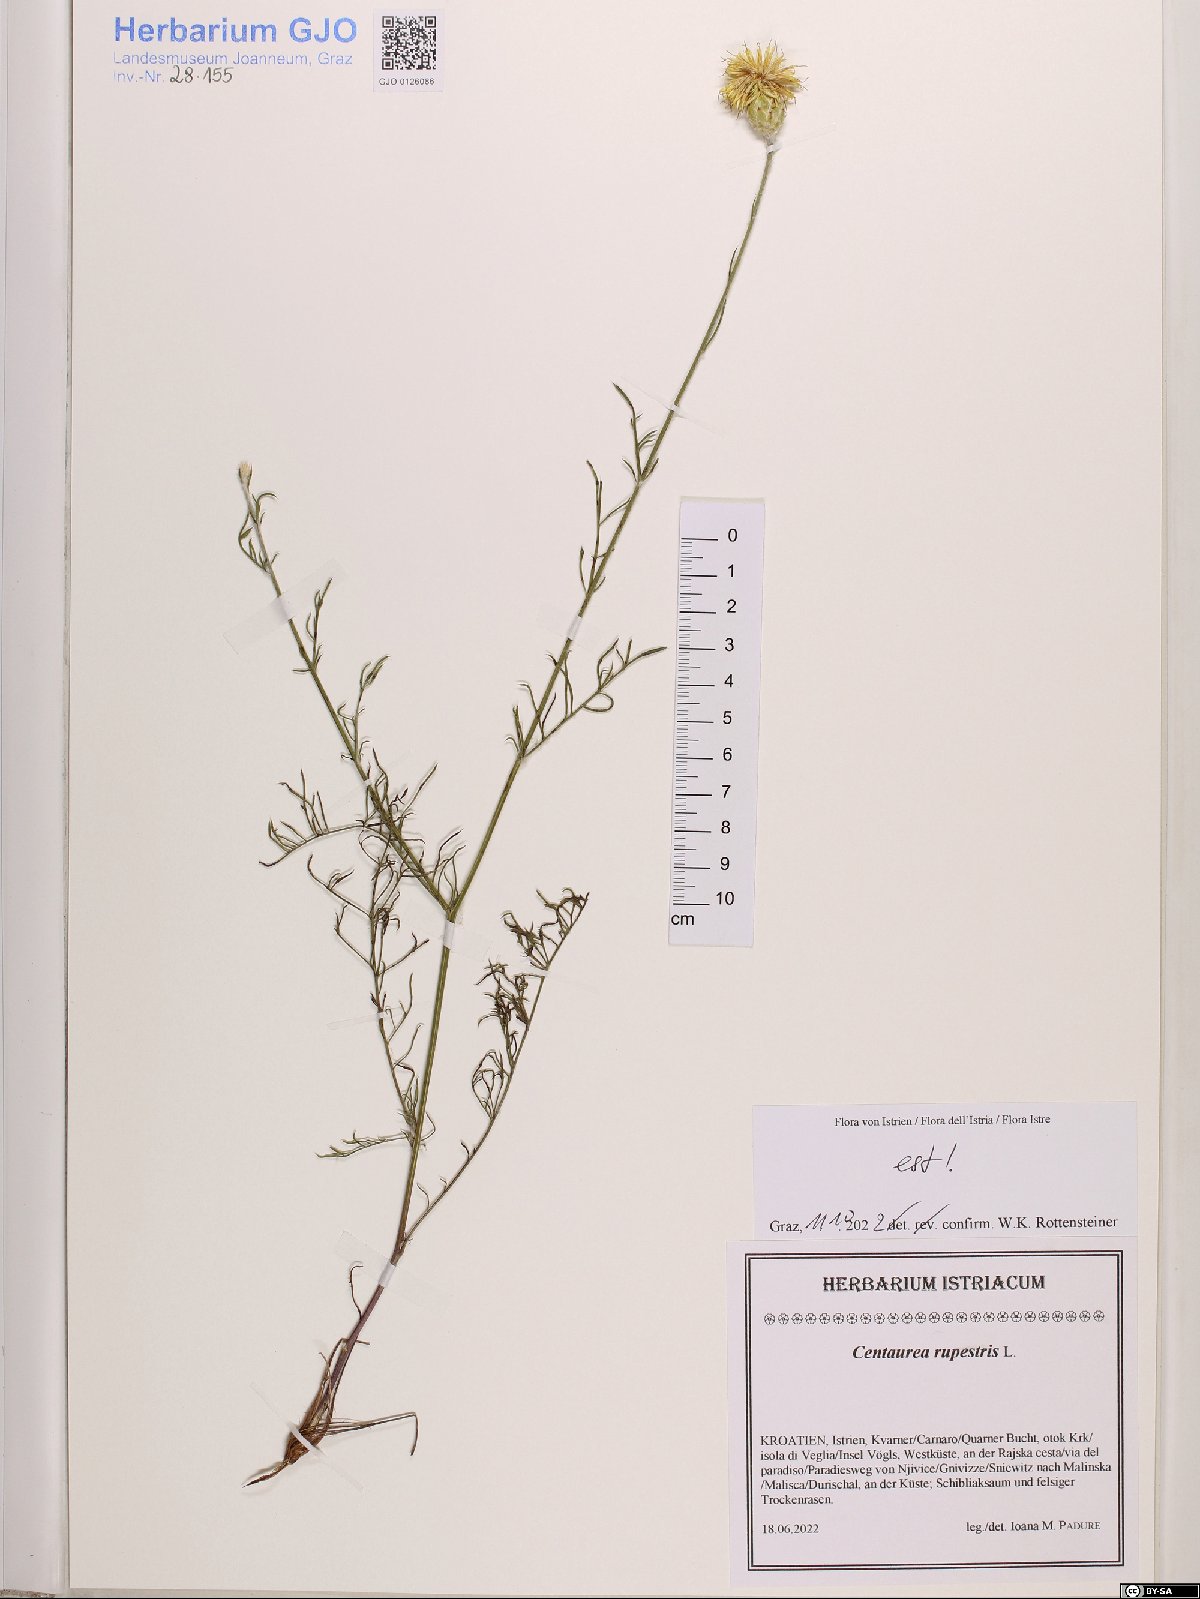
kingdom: Plantae
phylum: Tracheophyta
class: Magnoliopsida
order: Asterales
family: Asteraceae
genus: Centaurea
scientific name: Centaurea rupestris
